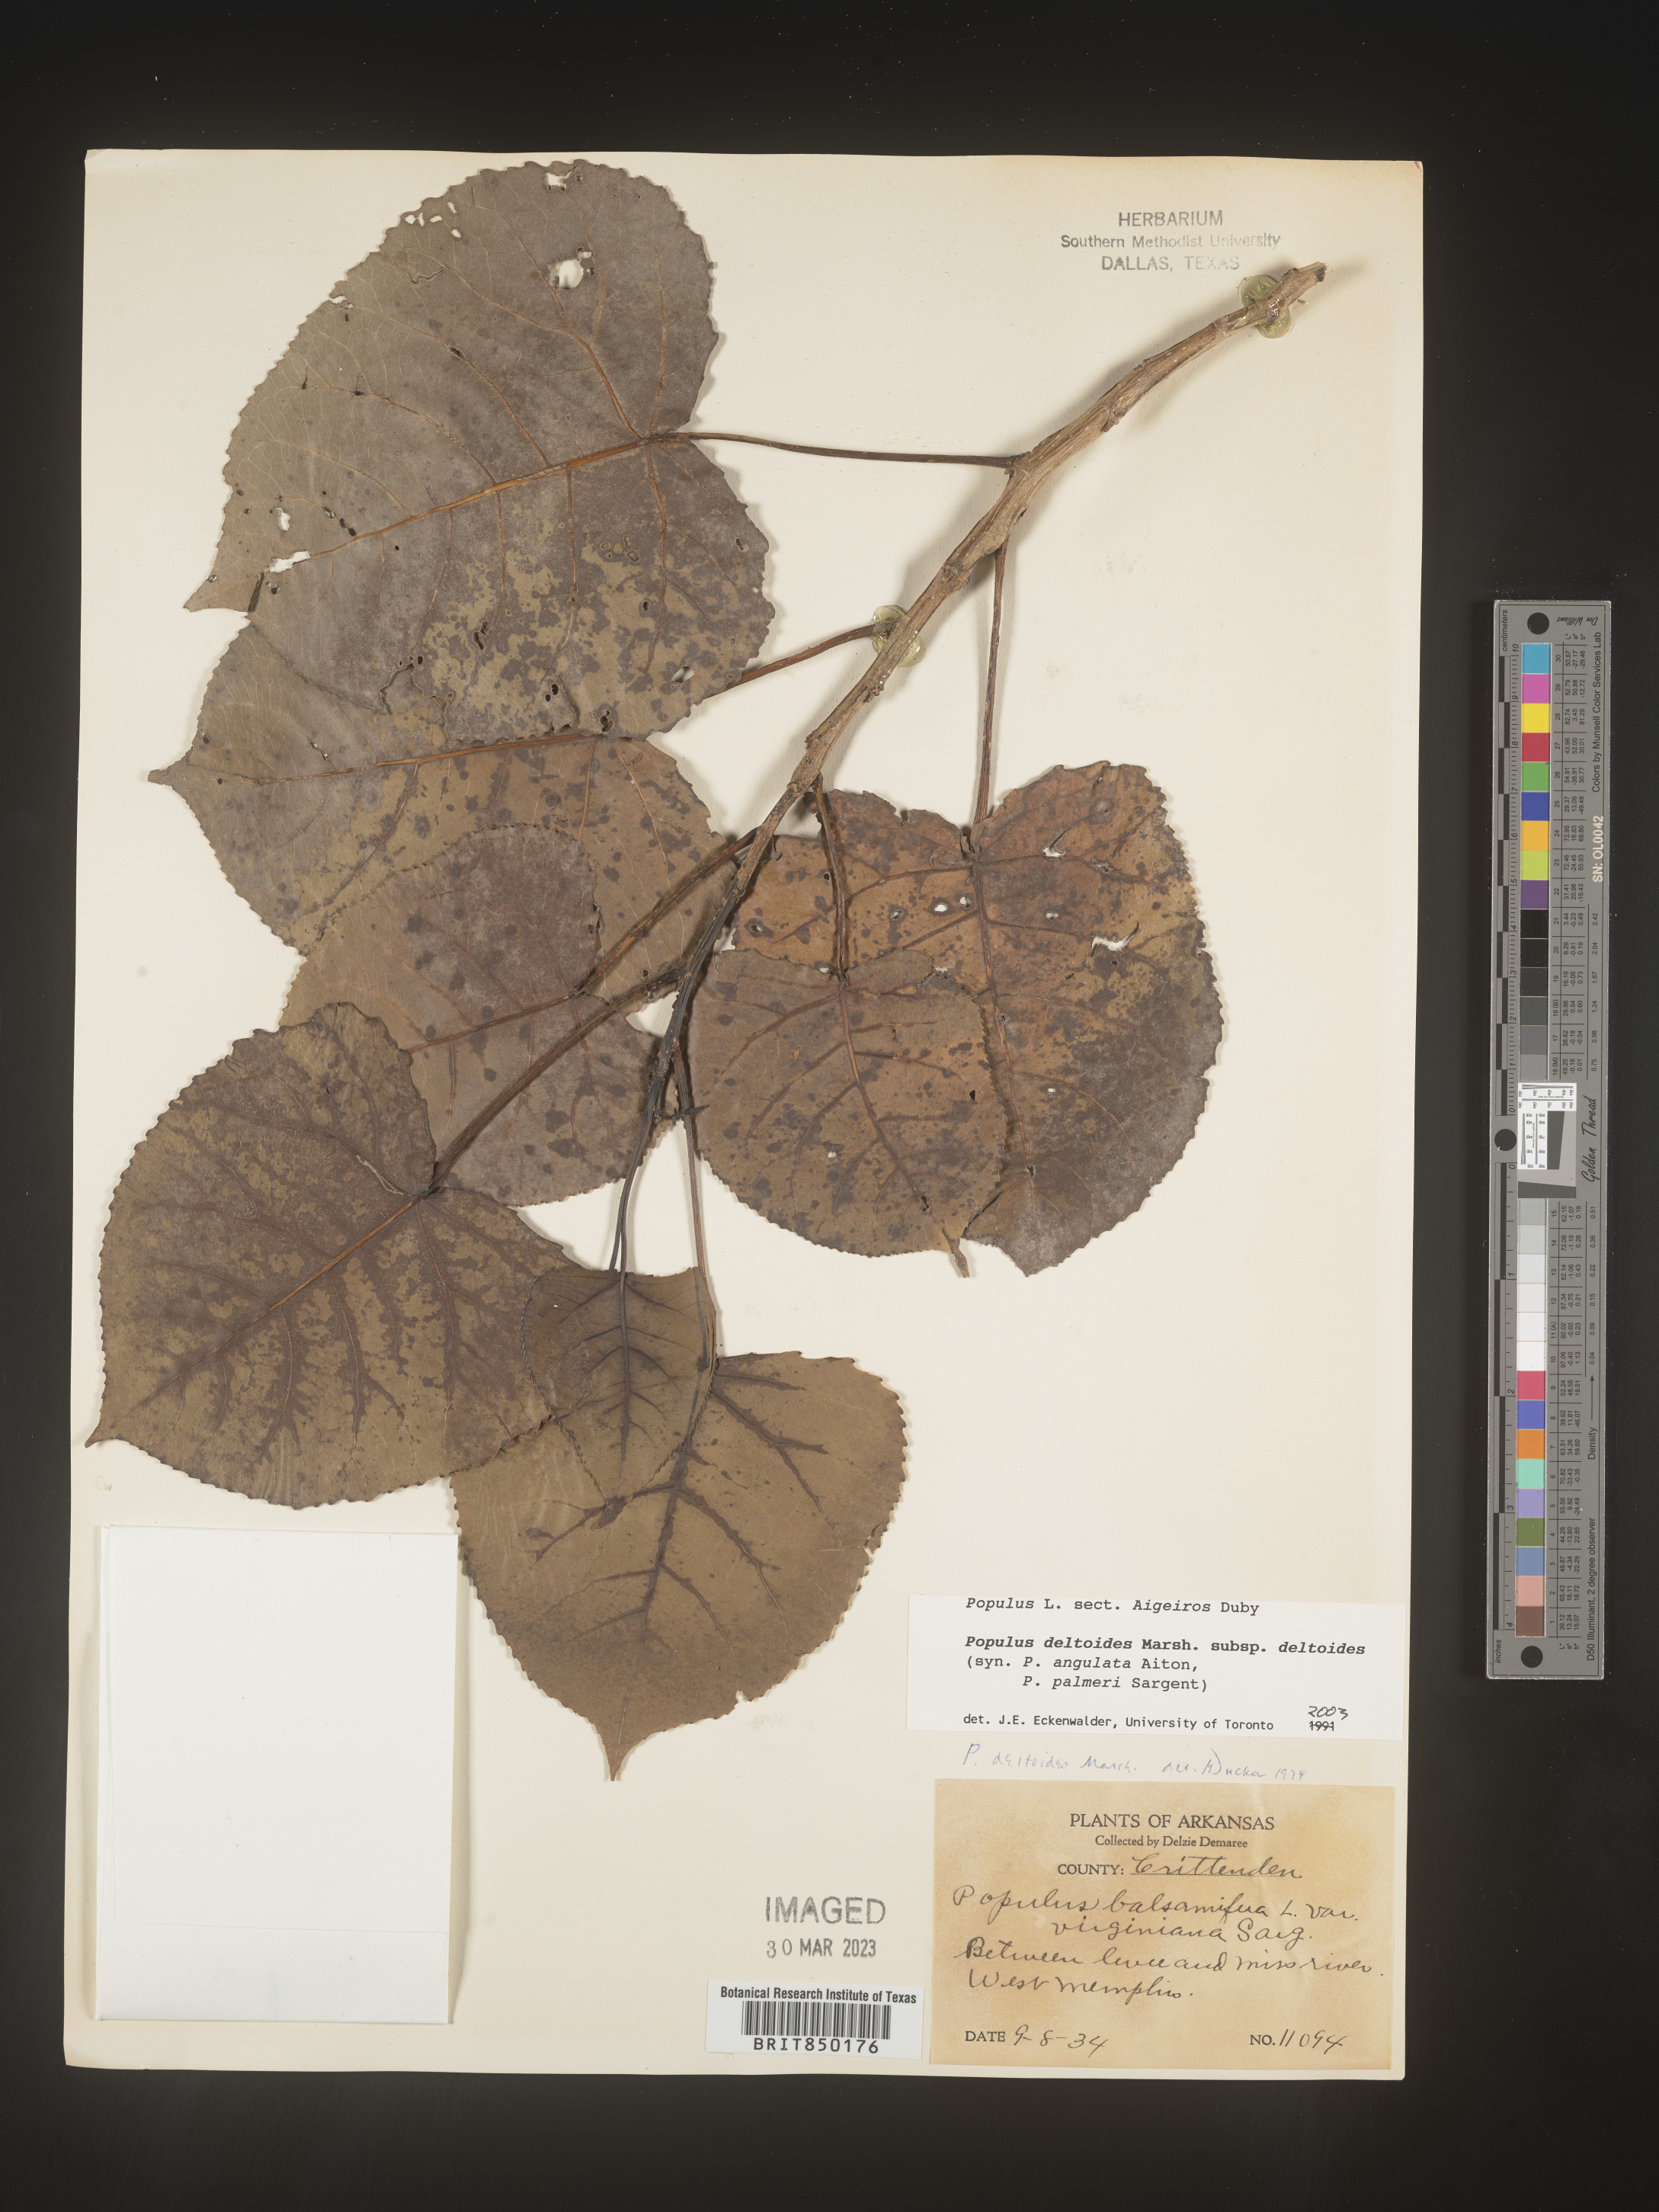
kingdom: Plantae
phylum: Tracheophyta
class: Magnoliopsida
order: Malpighiales
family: Salicaceae
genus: Populus
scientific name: Populus deltoides
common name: Eastern cottonwood
